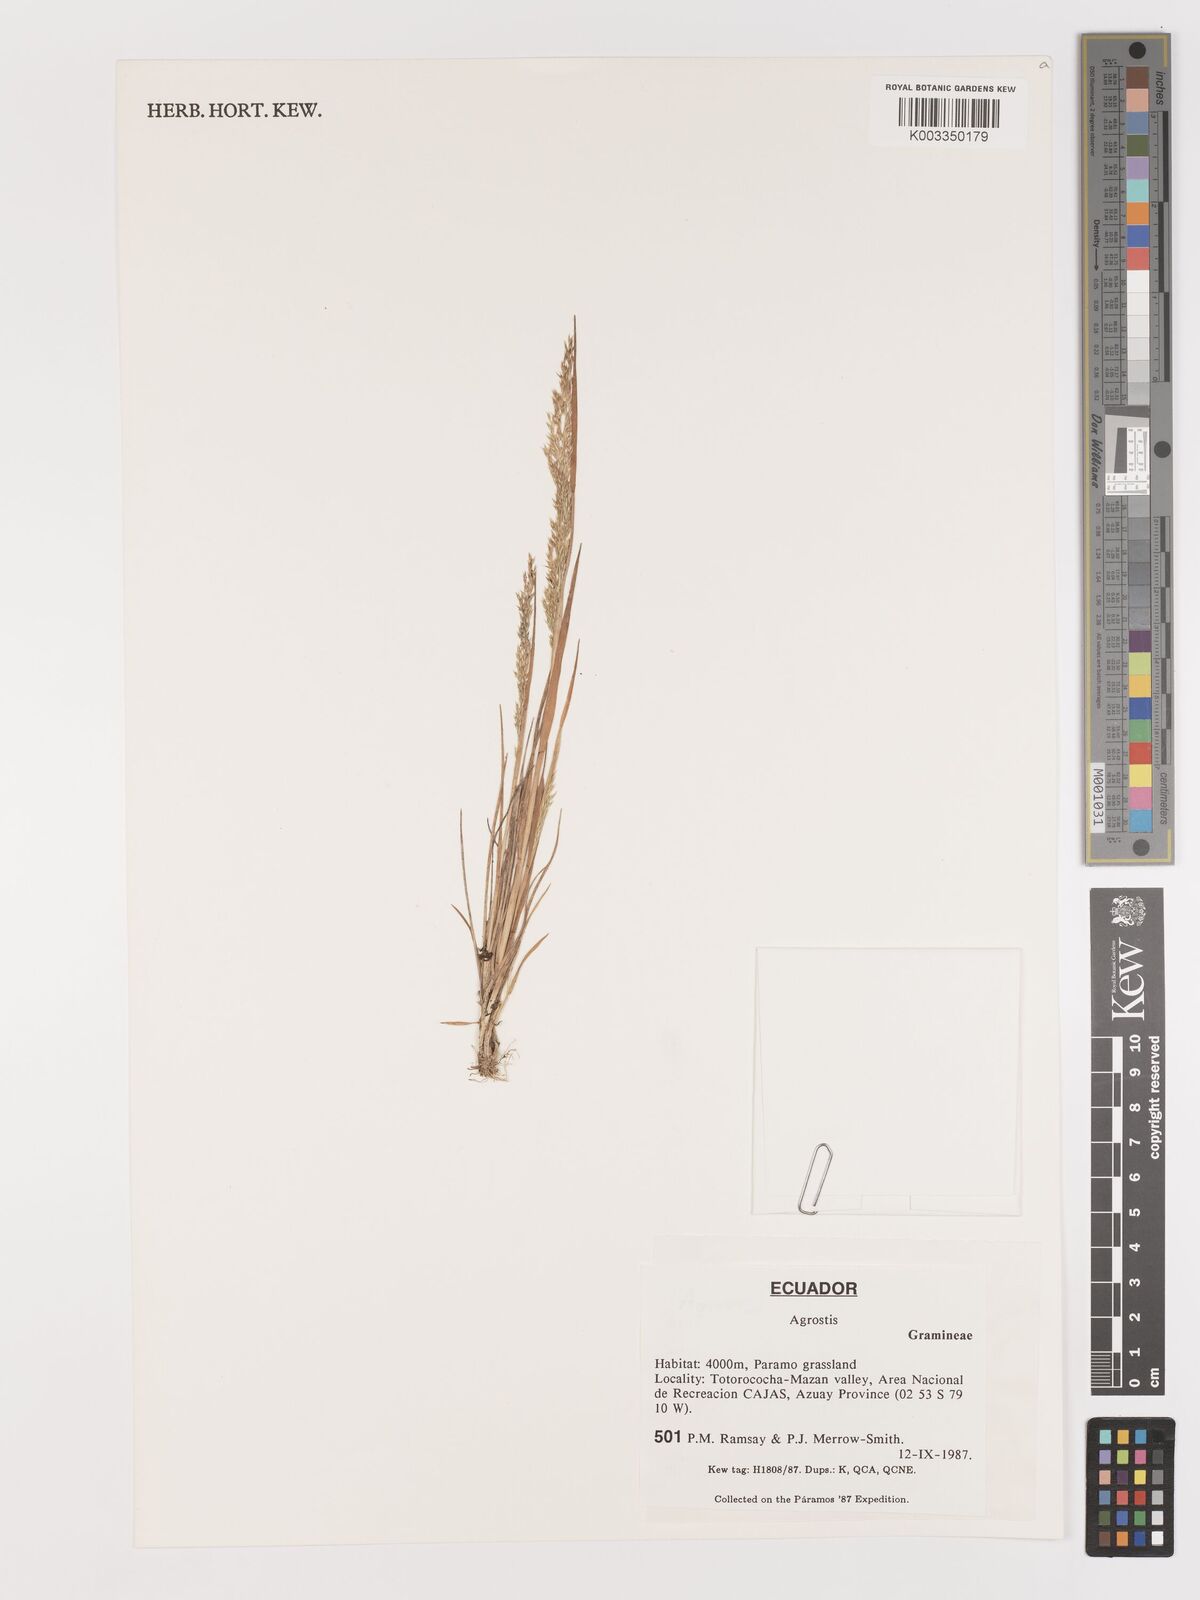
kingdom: Plantae
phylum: Tracheophyta
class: Liliopsida
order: Poales
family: Poaceae
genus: Agrostis
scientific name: Agrostis
